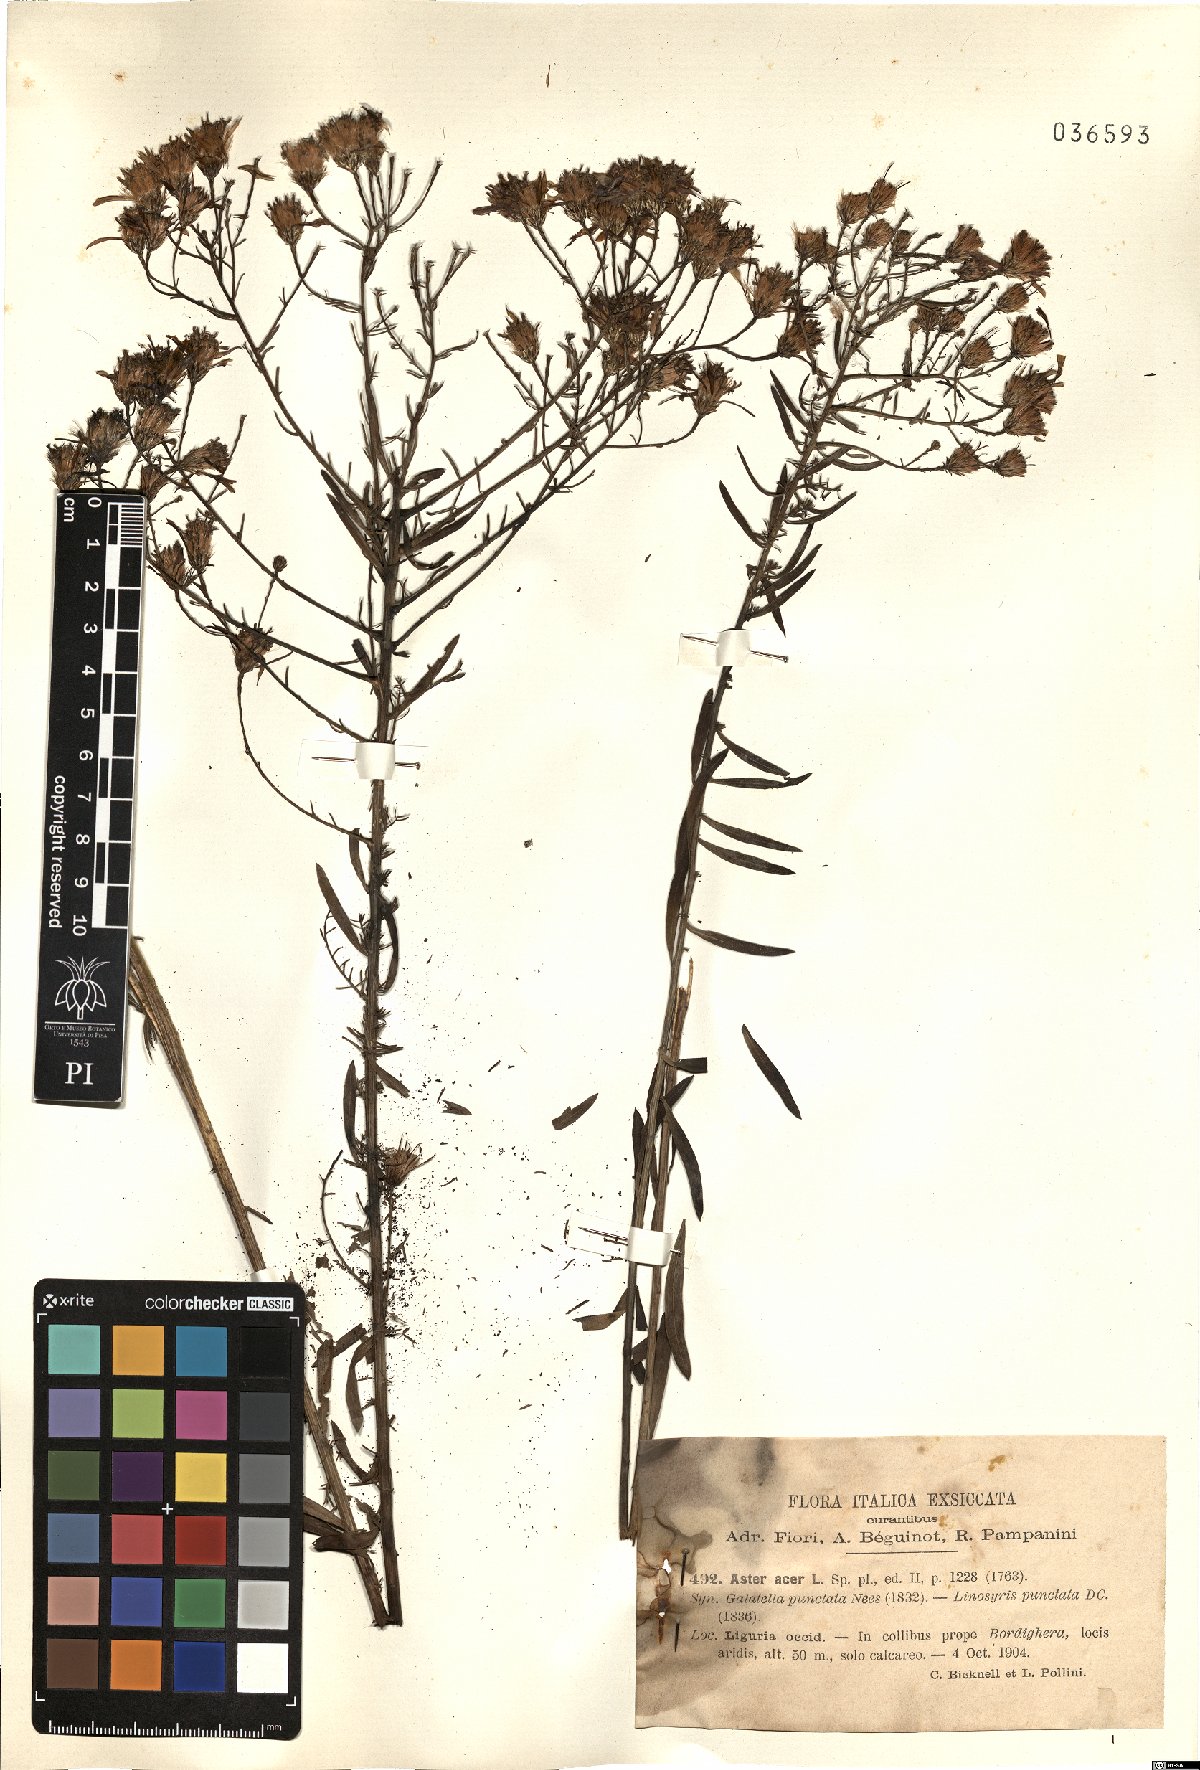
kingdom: Plantae
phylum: Tracheophyta
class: Magnoliopsida
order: Asterales
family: Asteraceae
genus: Aster
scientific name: Aster acer
